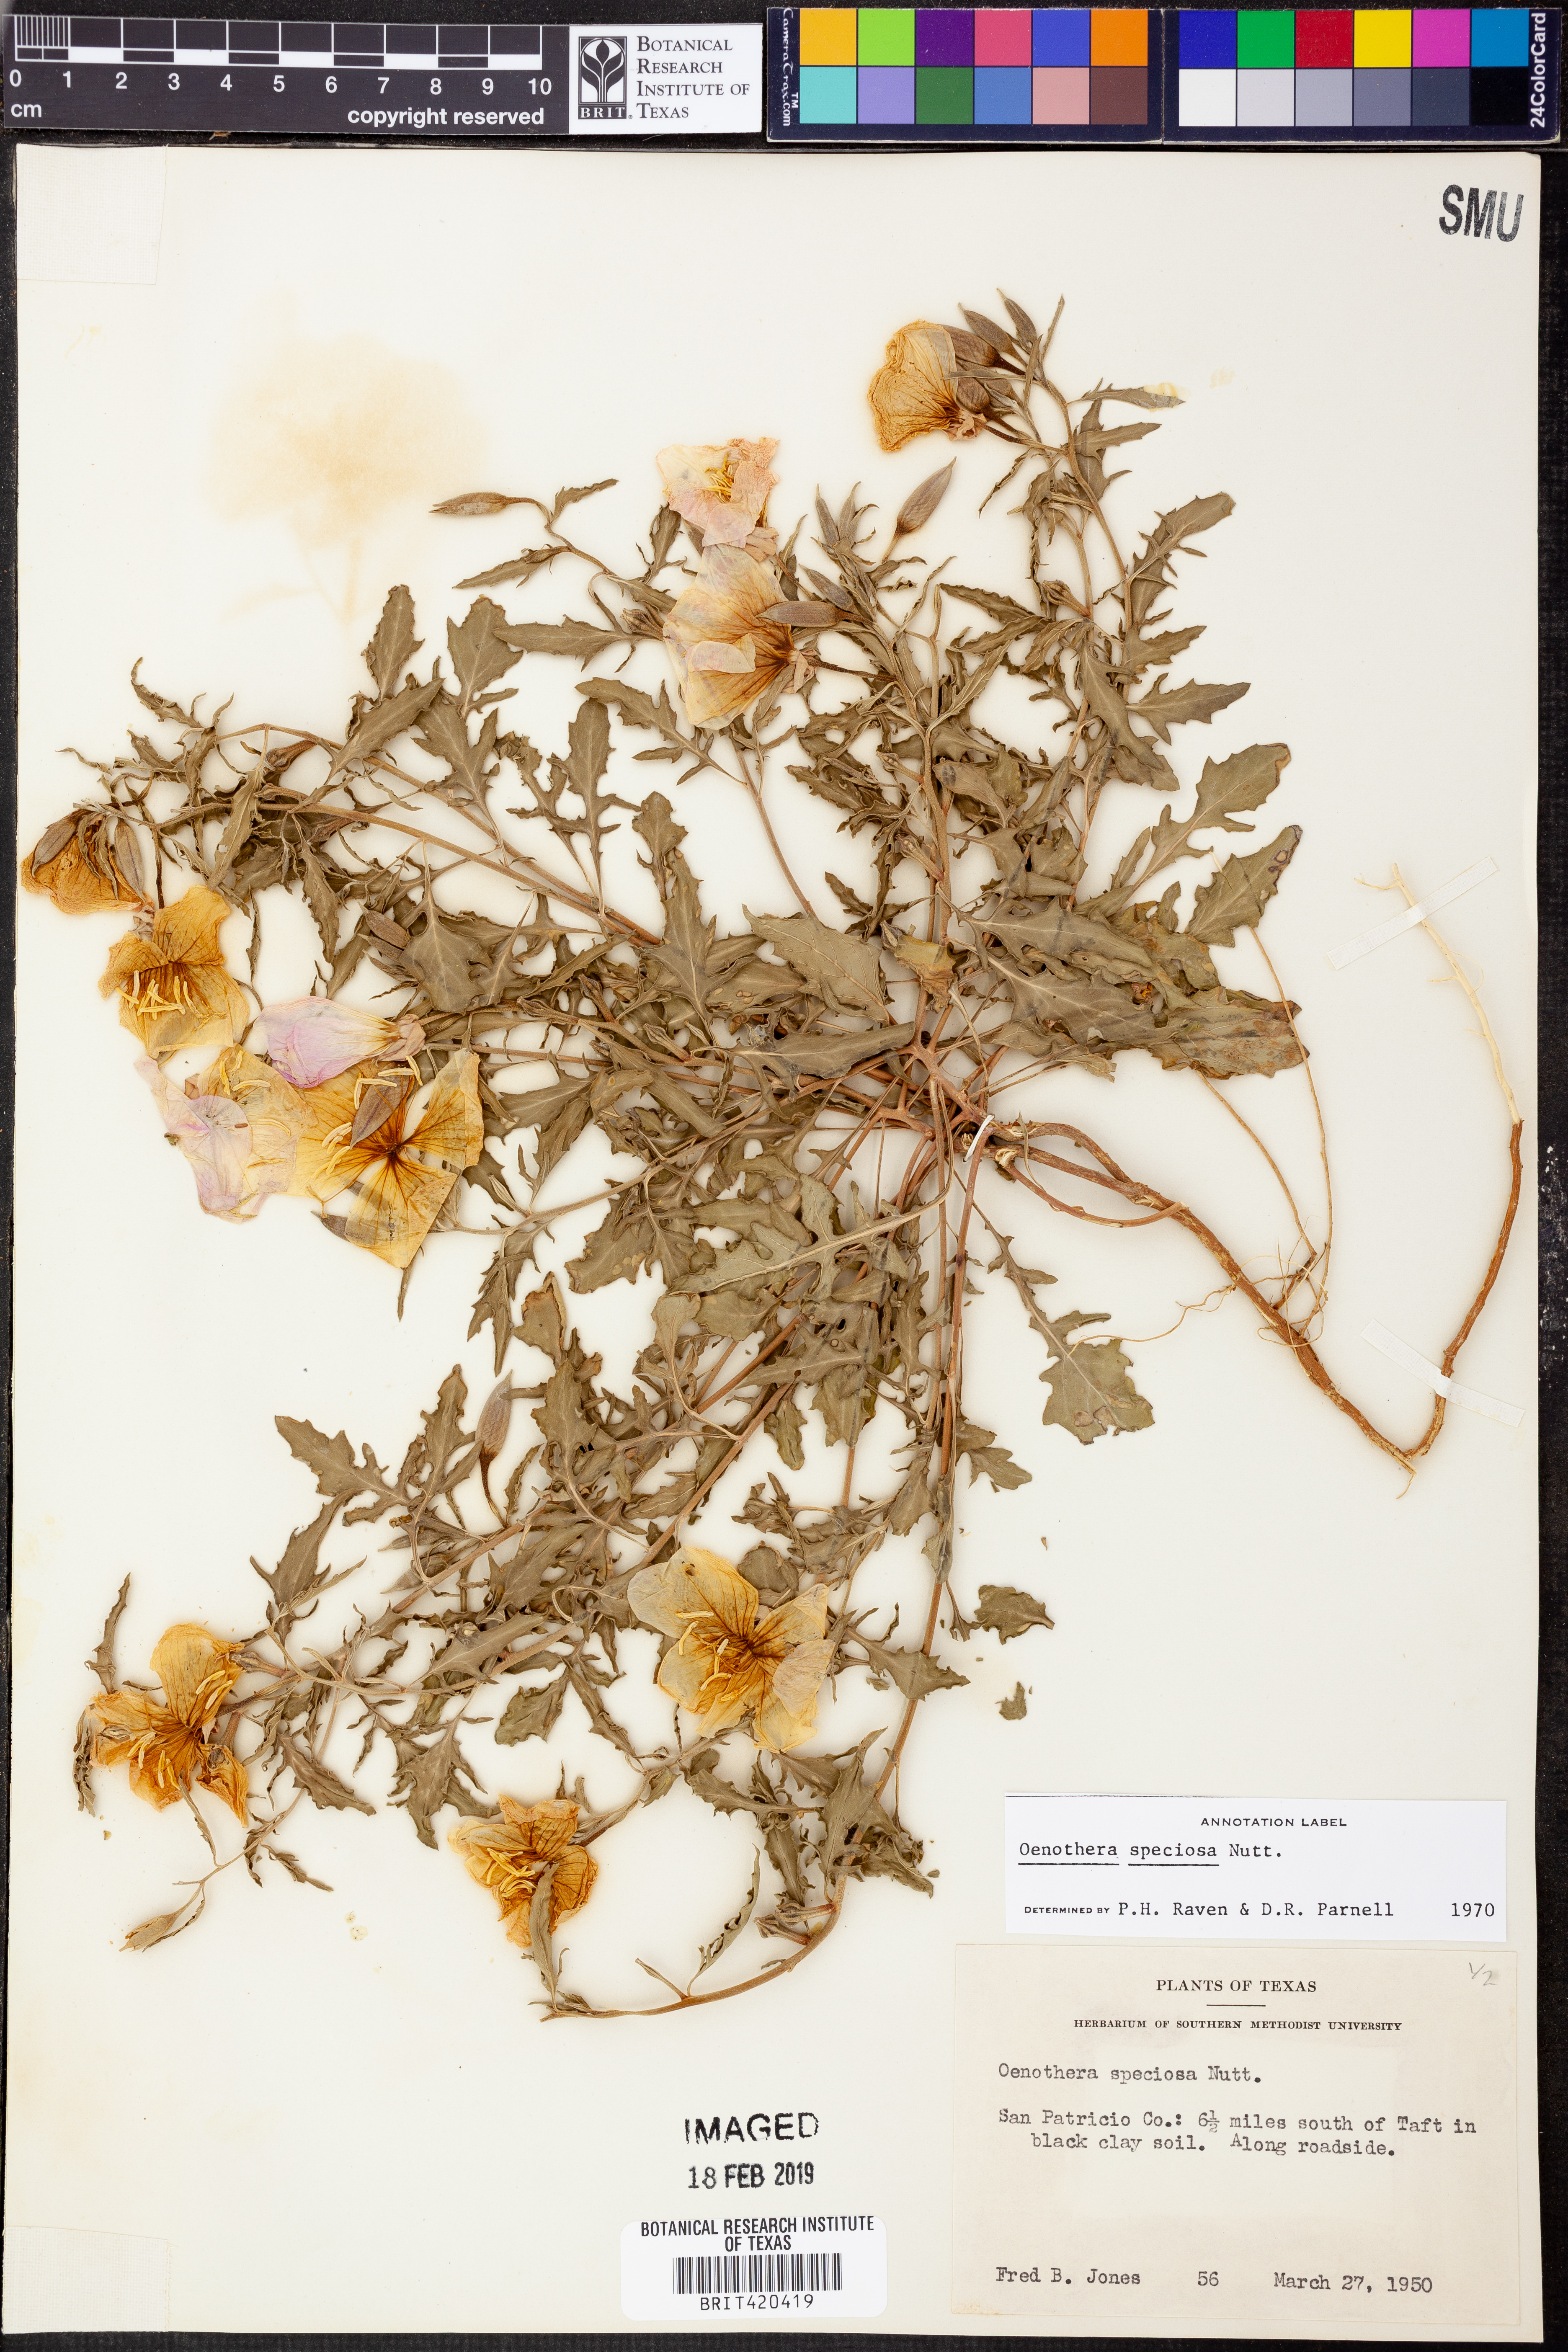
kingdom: Plantae
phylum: Tracheophyta
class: Magnoliopsida
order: Myrtales
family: Onagraceae
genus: Oenothera
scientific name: Oenothera speciosa
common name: White evening-primrose
